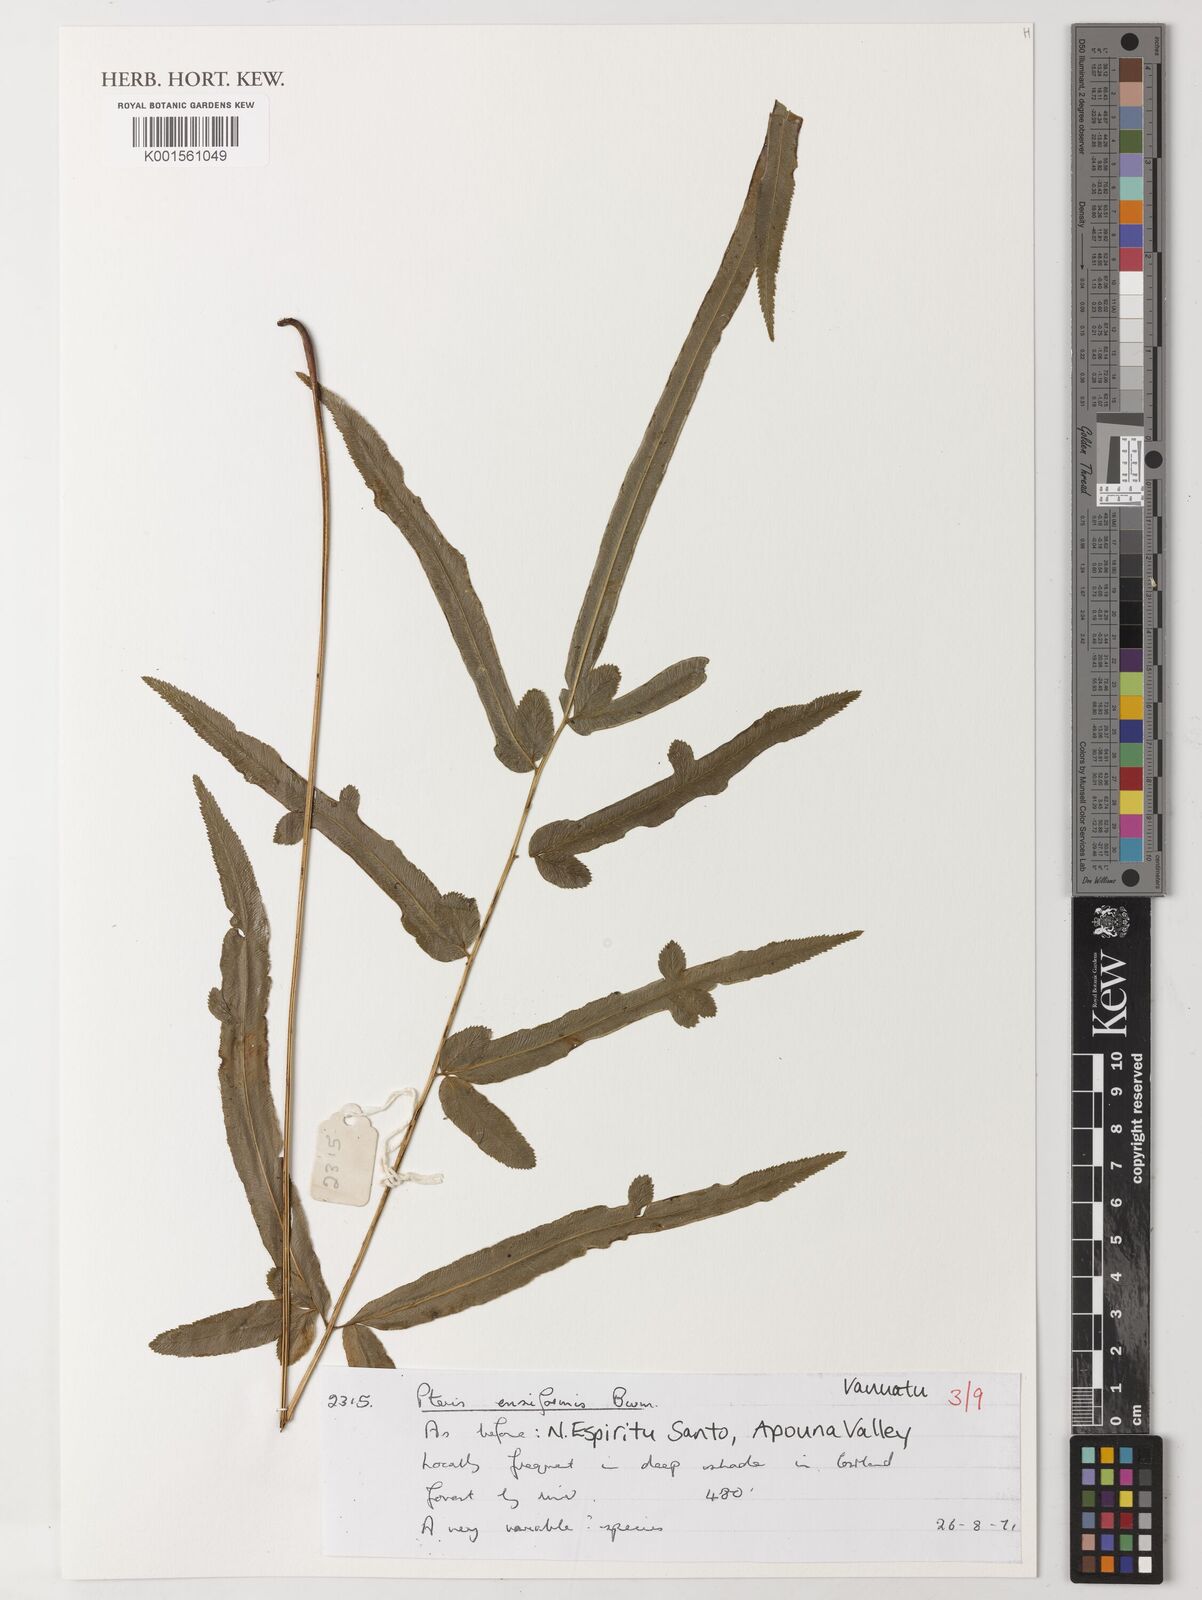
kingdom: Plantae
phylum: Tracheophyta
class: Polypodiopsida
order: Polypodiales
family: Pteridaceae
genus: Pteris
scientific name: Pteris ensiformis
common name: Sword brake
